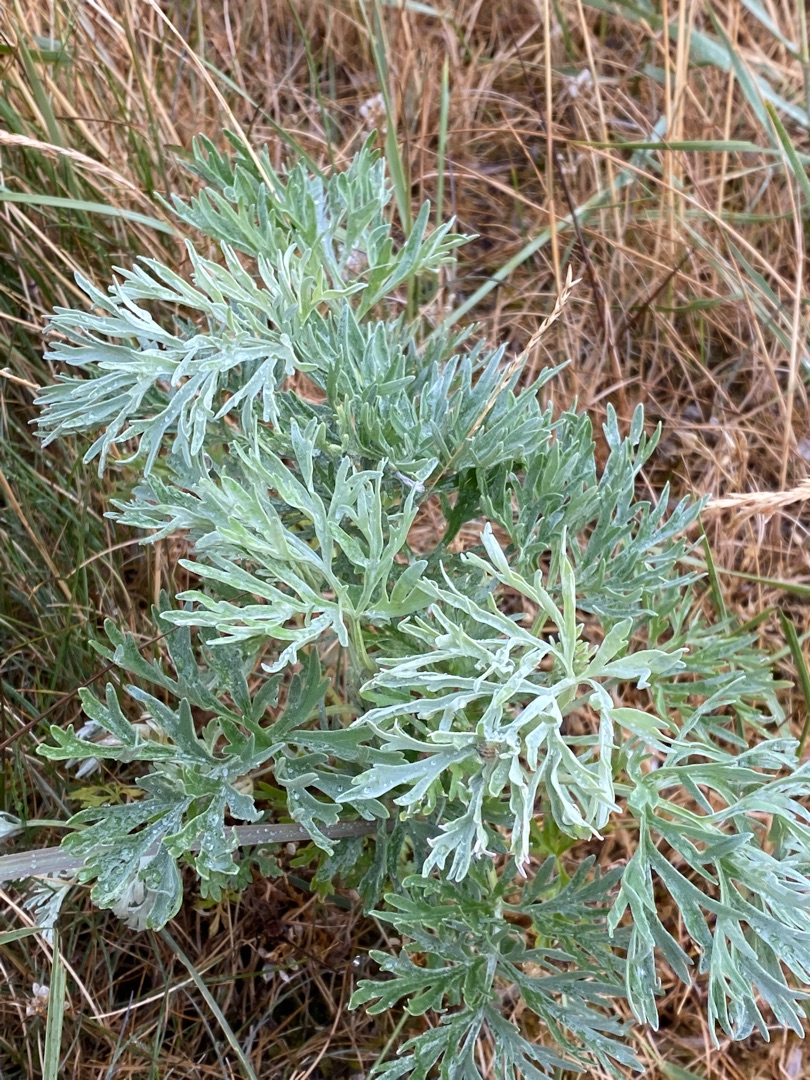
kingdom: Plantae
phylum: Tracheophyta
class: Magnoliopsida
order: Asterales
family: Asteraceae
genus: Artemisia
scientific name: Artemisia absinthium
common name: Havemalurt
